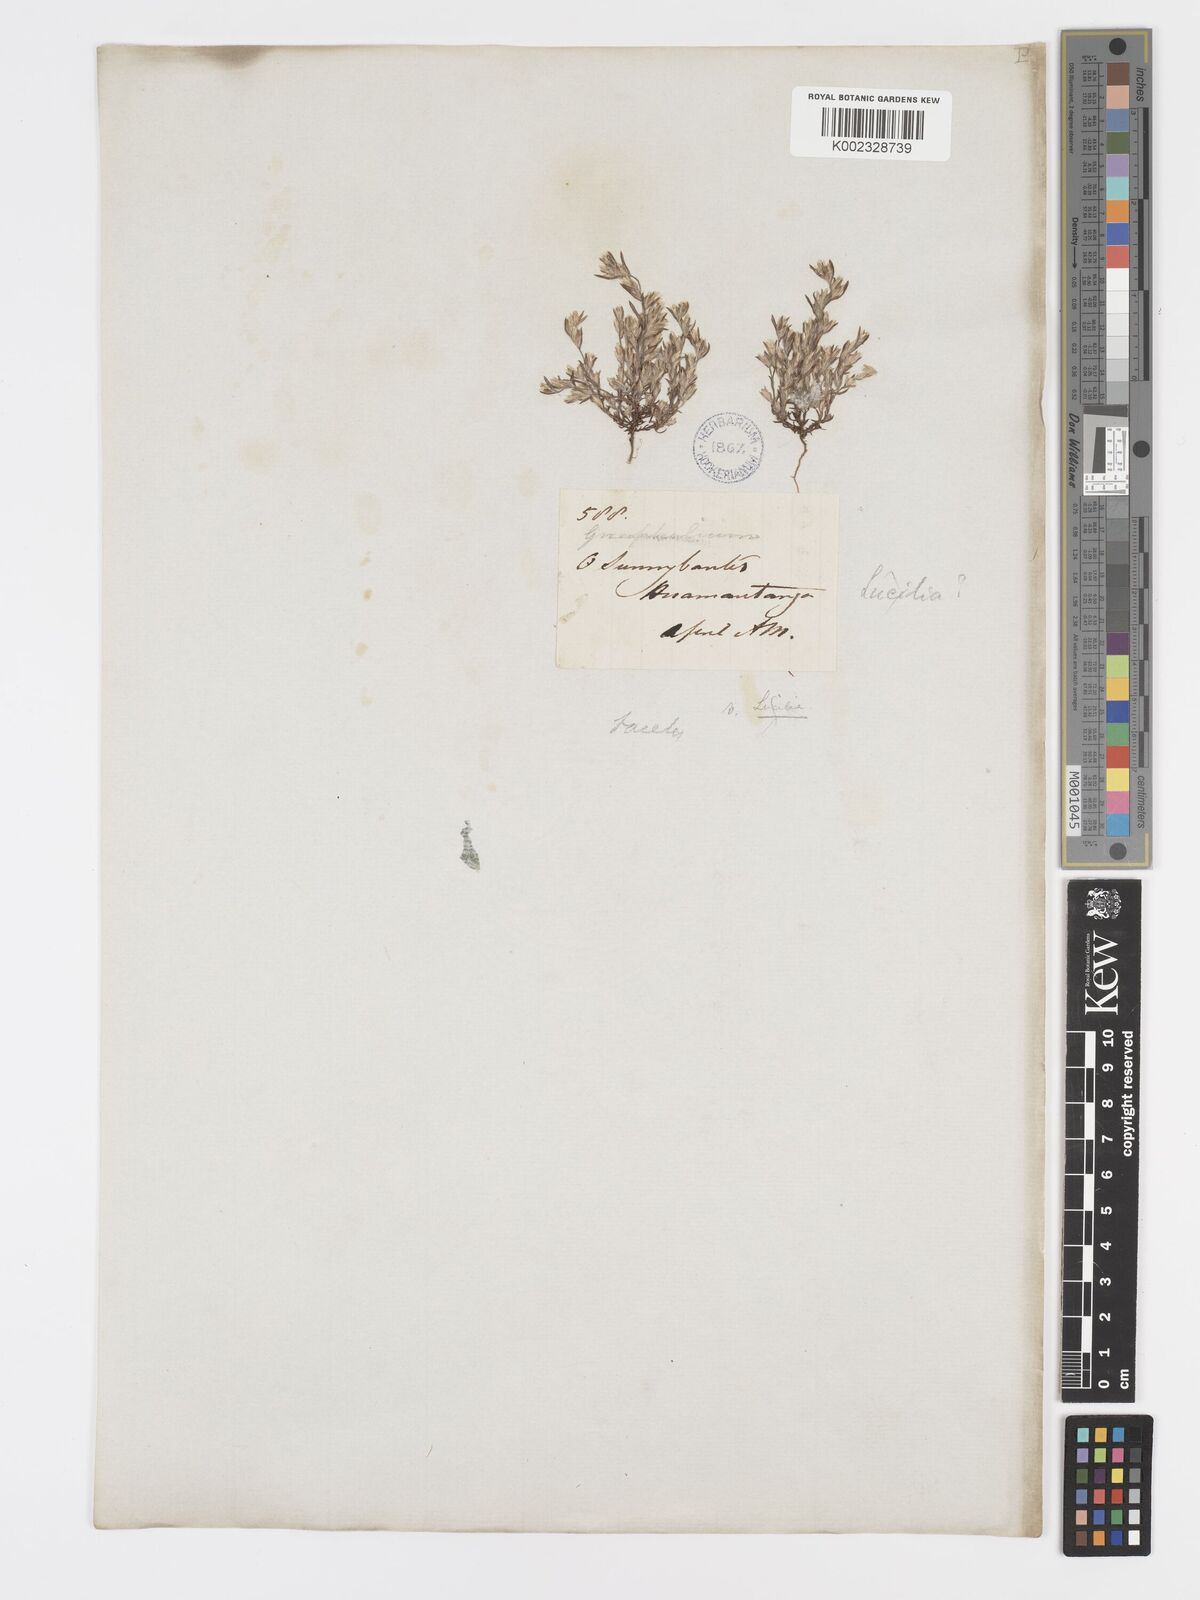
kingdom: Plantae
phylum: Tracheophyta
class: Magnoliopsida
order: Asterales
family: Asteraceae
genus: Facelis
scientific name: Facelis plumosa
